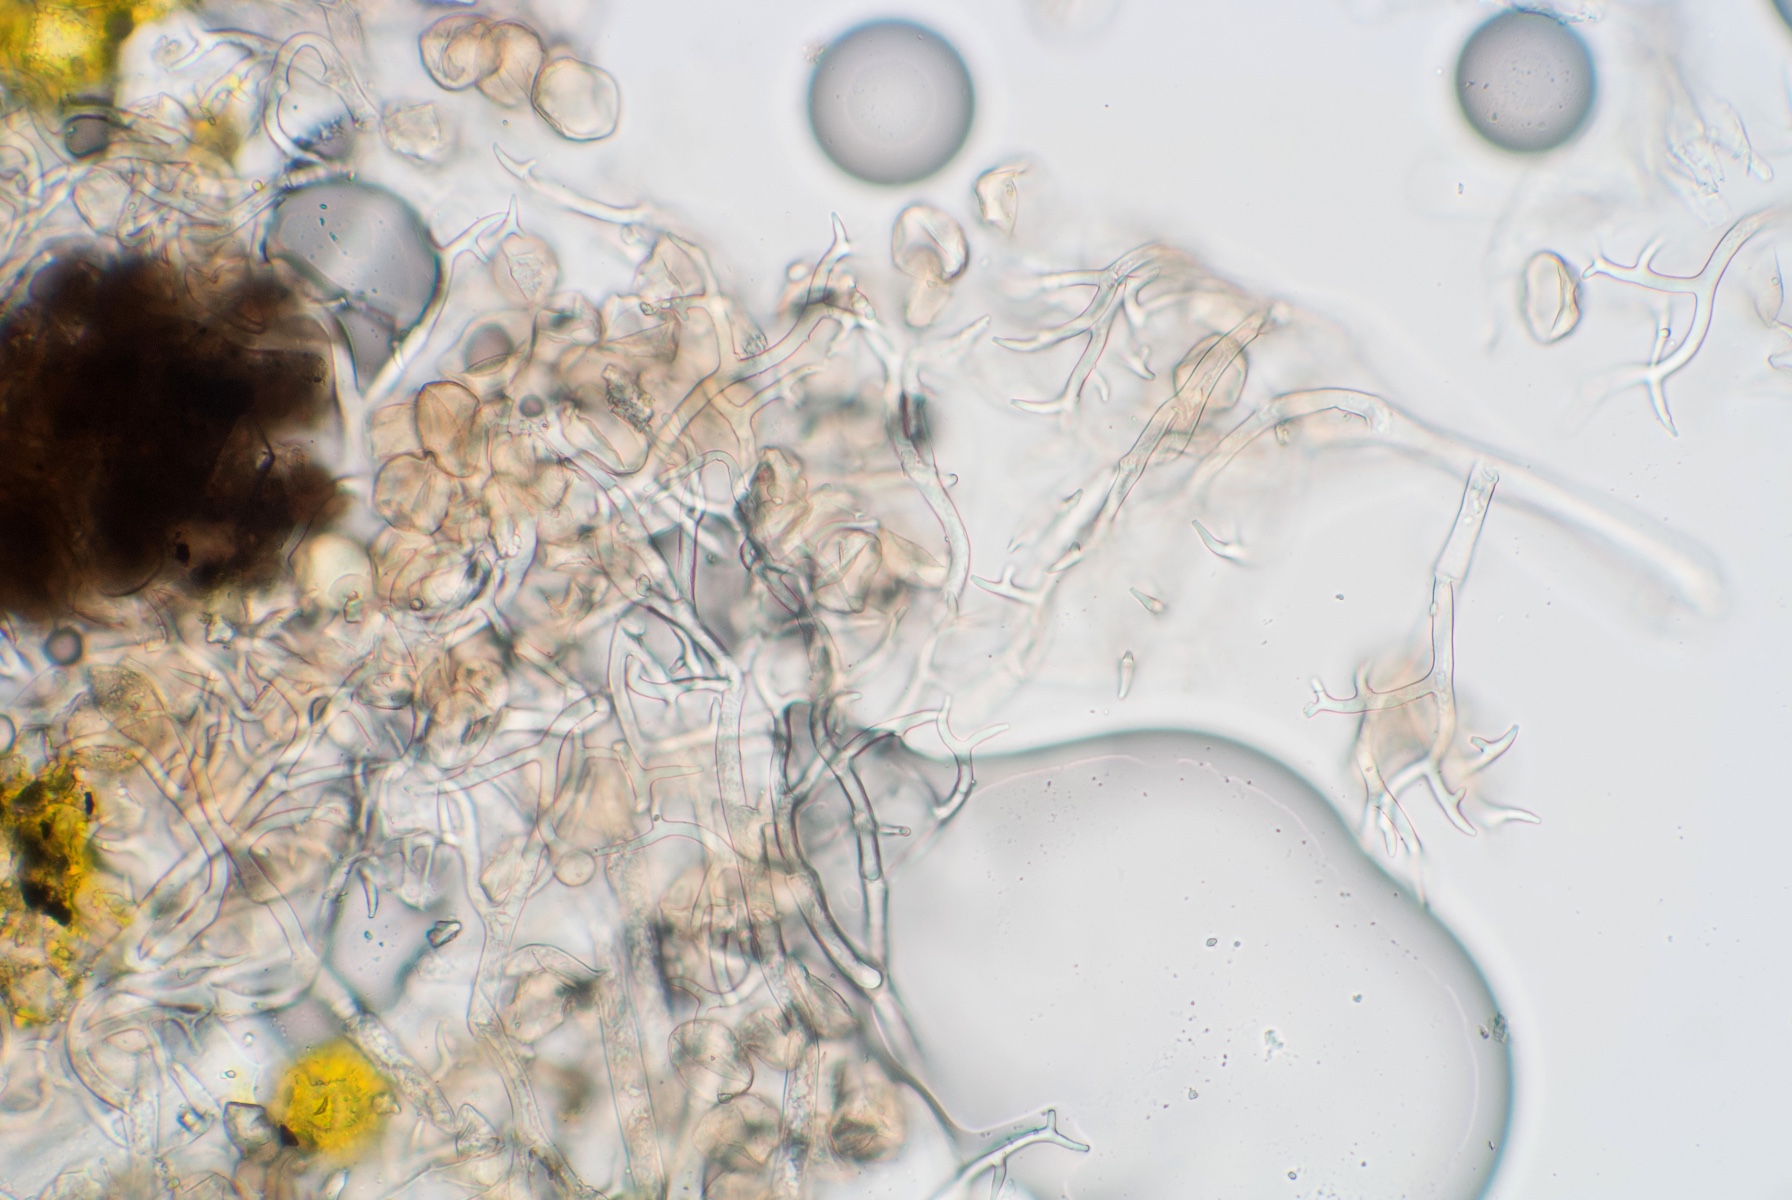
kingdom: Chromista
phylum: Oomycota
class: Peronosporea
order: Peronosporales
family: Peronosporaceae
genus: Peronospora
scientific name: Peronospora lamii
